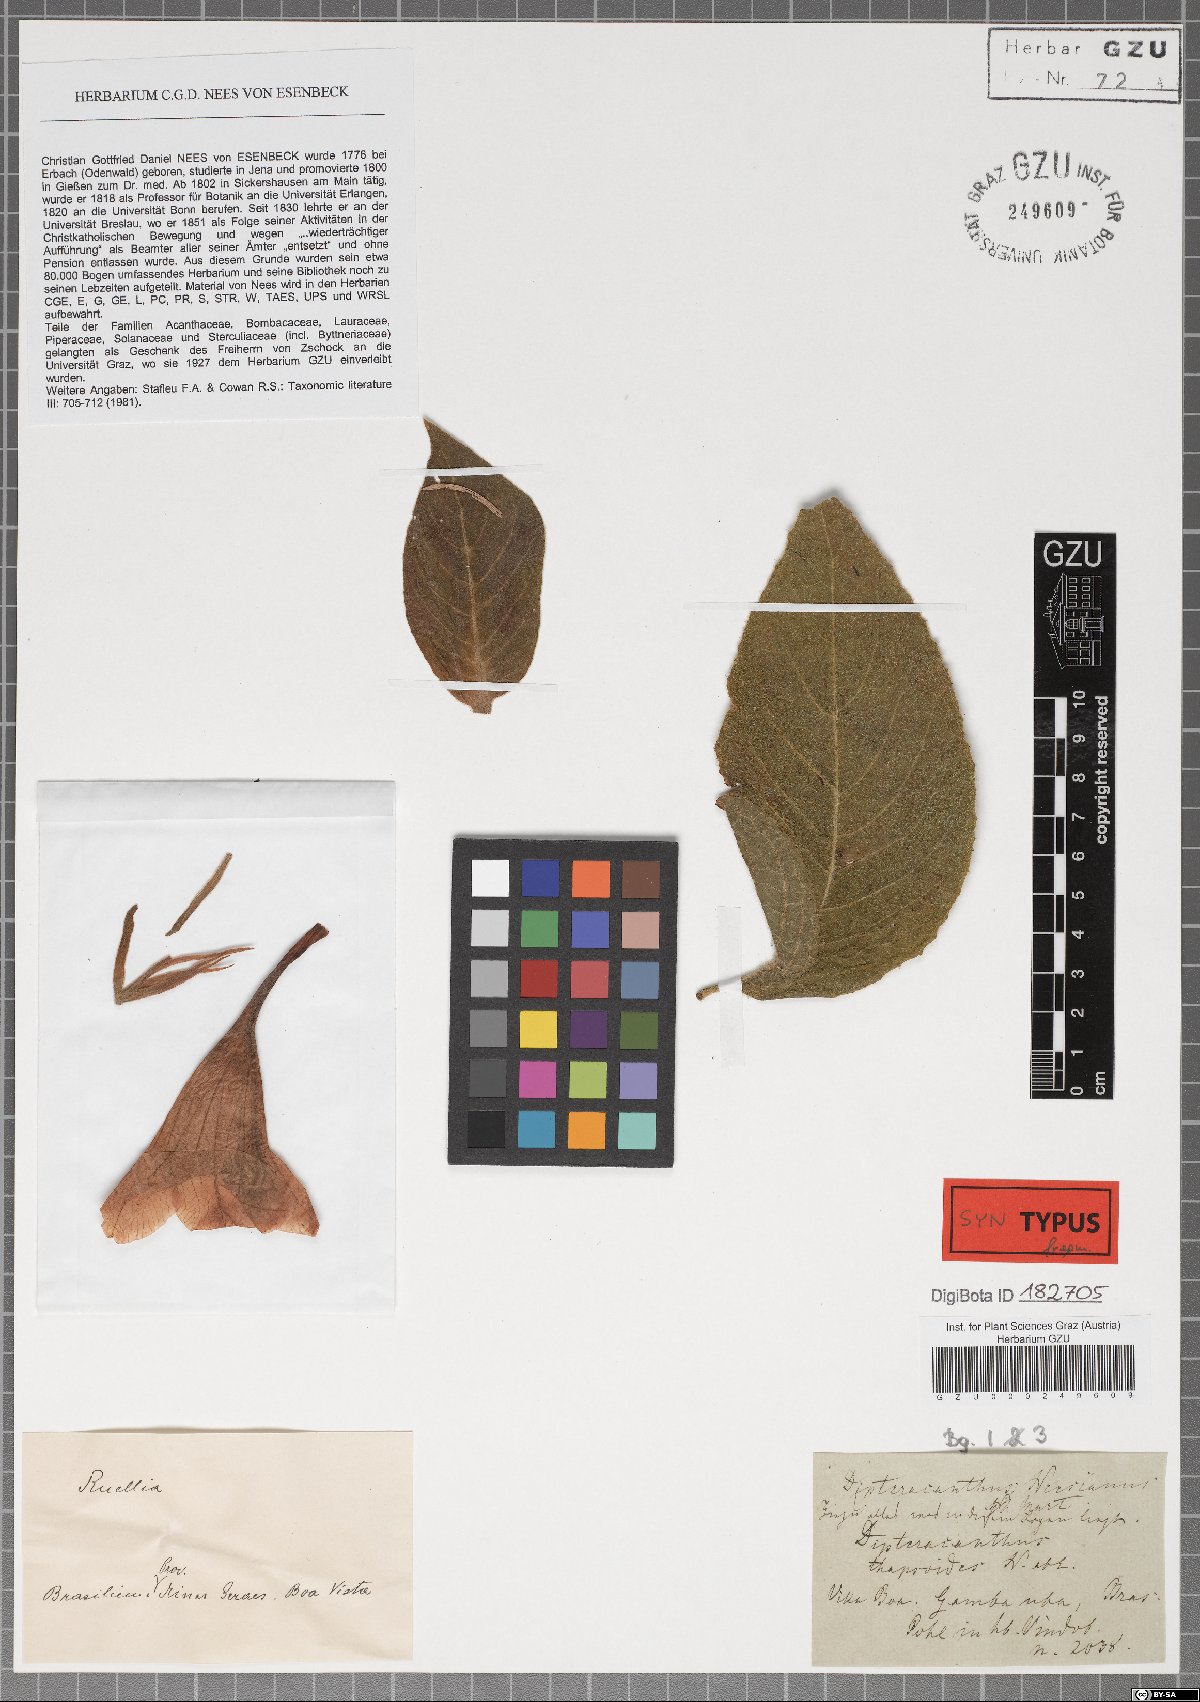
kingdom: Plantae
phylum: Tracheophyta
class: Magnoliopsida
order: Lamiales
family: Acanthaceae
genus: Ruellia
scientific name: Ruellia neesiana
